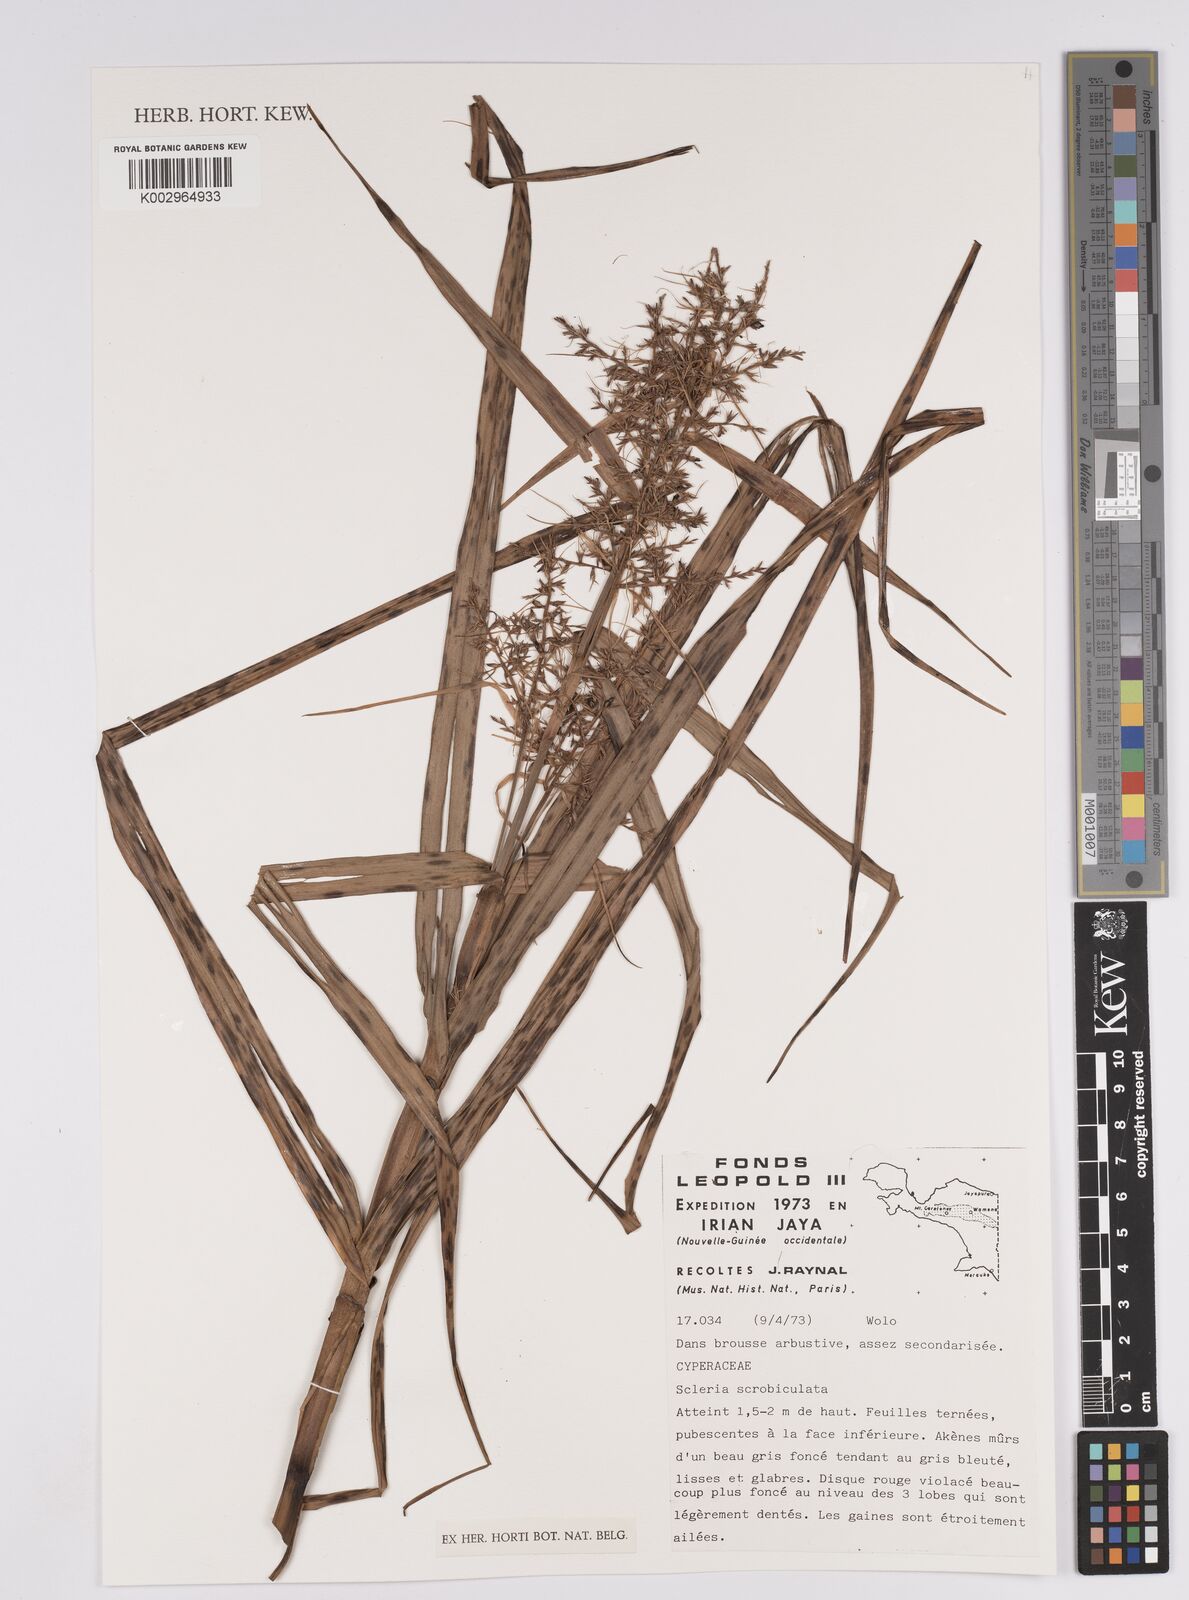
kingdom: Plantae
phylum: Tracheophyta
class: Liliopsida
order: Poales
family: Cyperaceae
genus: Scleria
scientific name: Scleria scrobiculata
